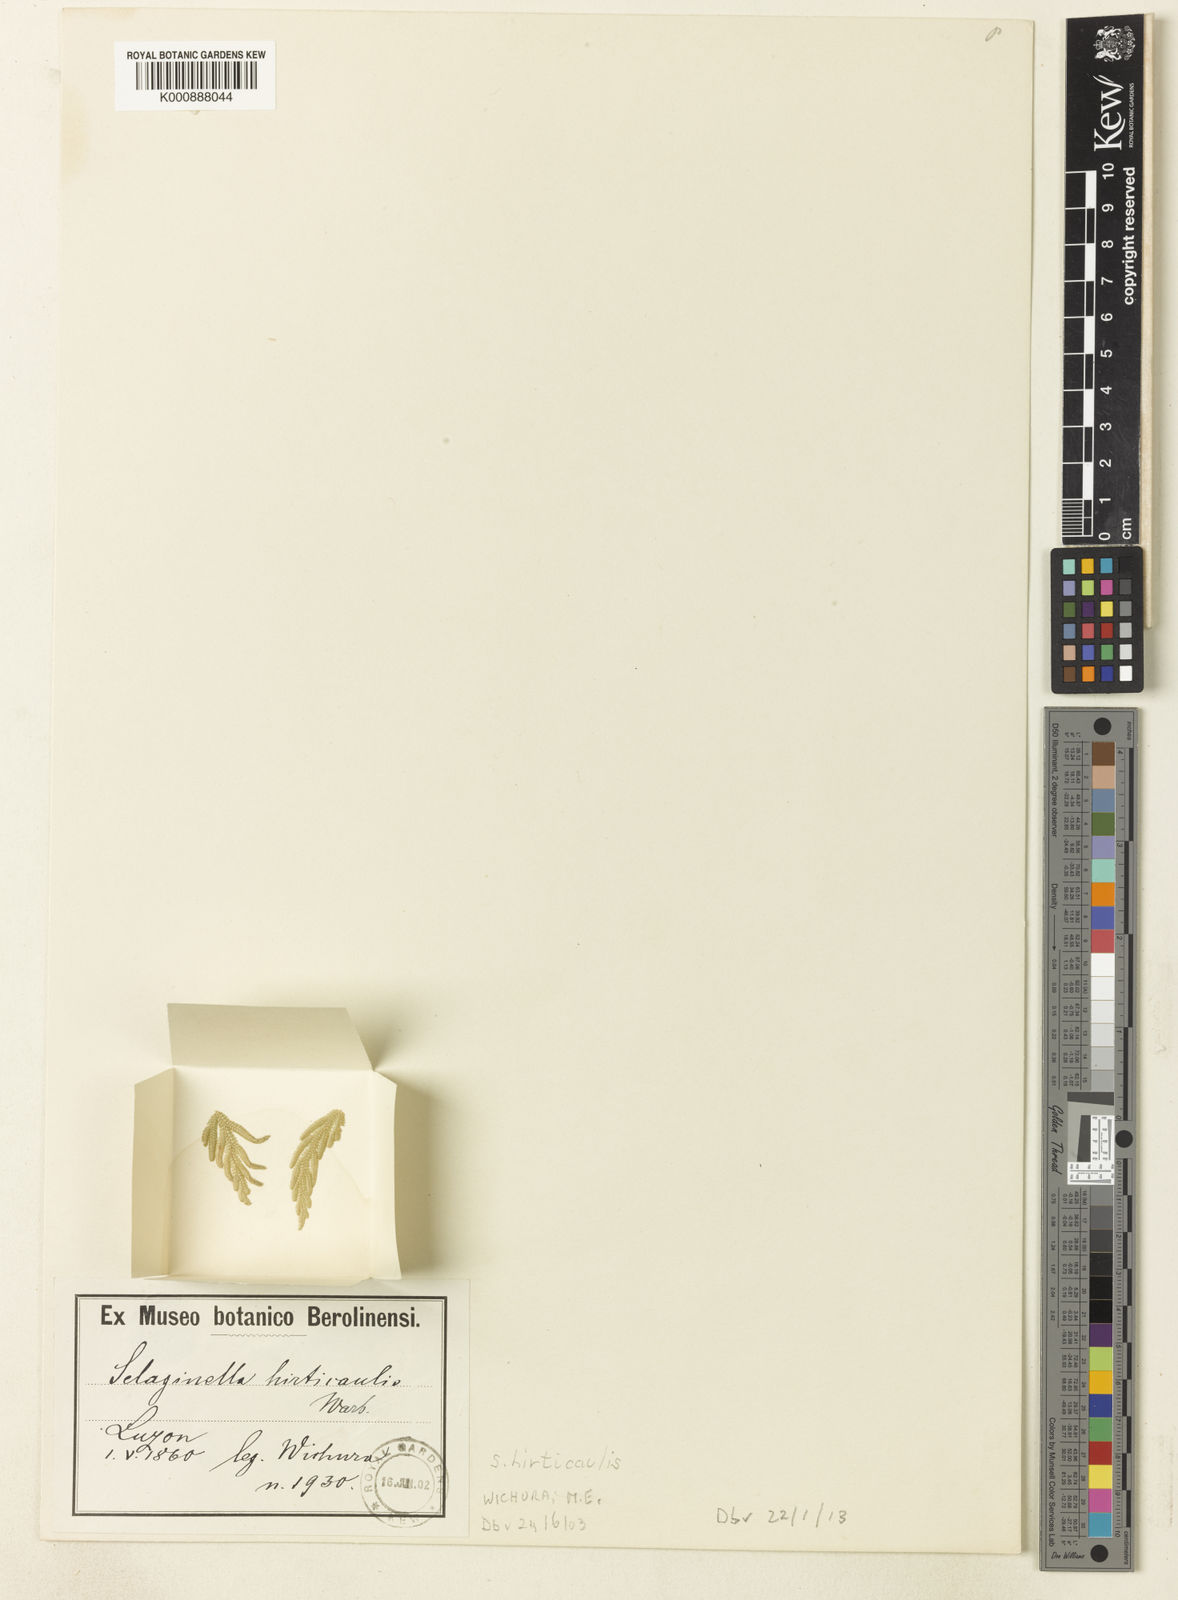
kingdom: Plantae
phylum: Tracheophyta
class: Lycopodiopsida
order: Selaginellales
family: Selaginellaceae
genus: Selaginella
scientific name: Selaginella biformis
